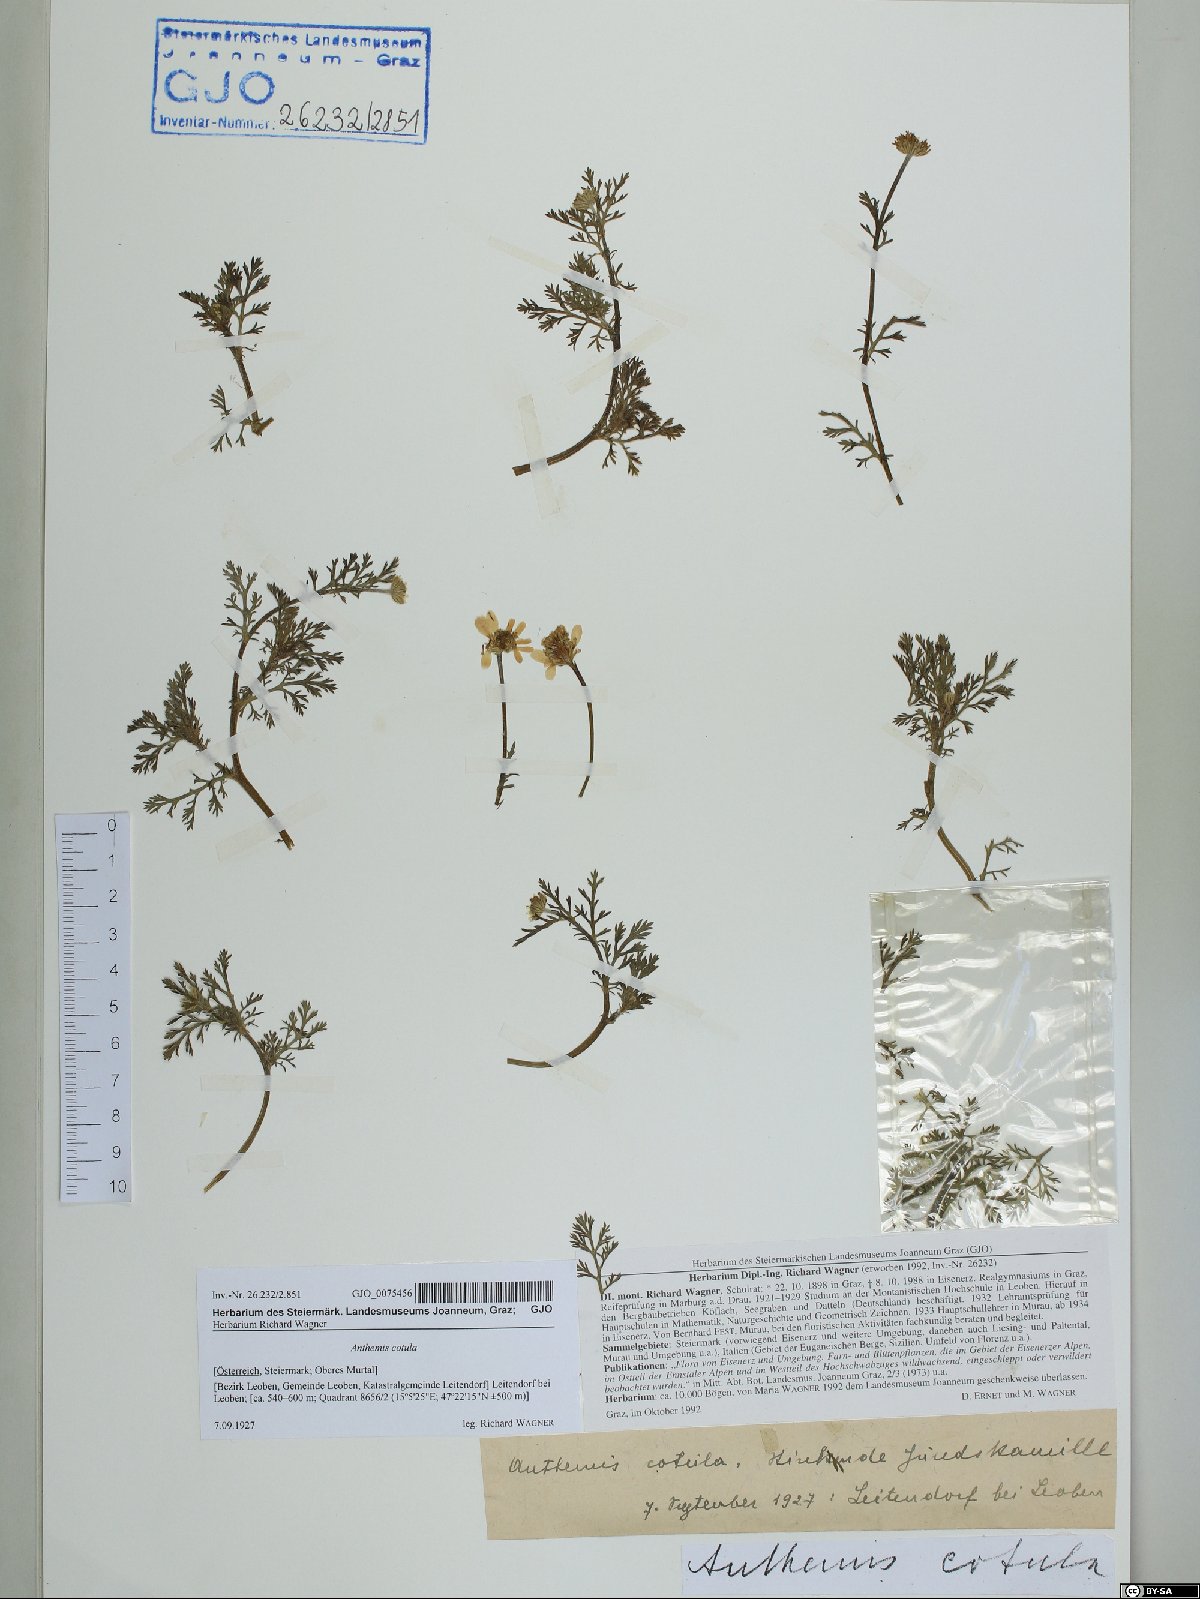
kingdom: Plantae
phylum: Tracheophyta
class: Magnoliopsida
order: Asterales
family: Asteraceae
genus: Anthemis
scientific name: Anthemis cotula
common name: Stinking chamomile
